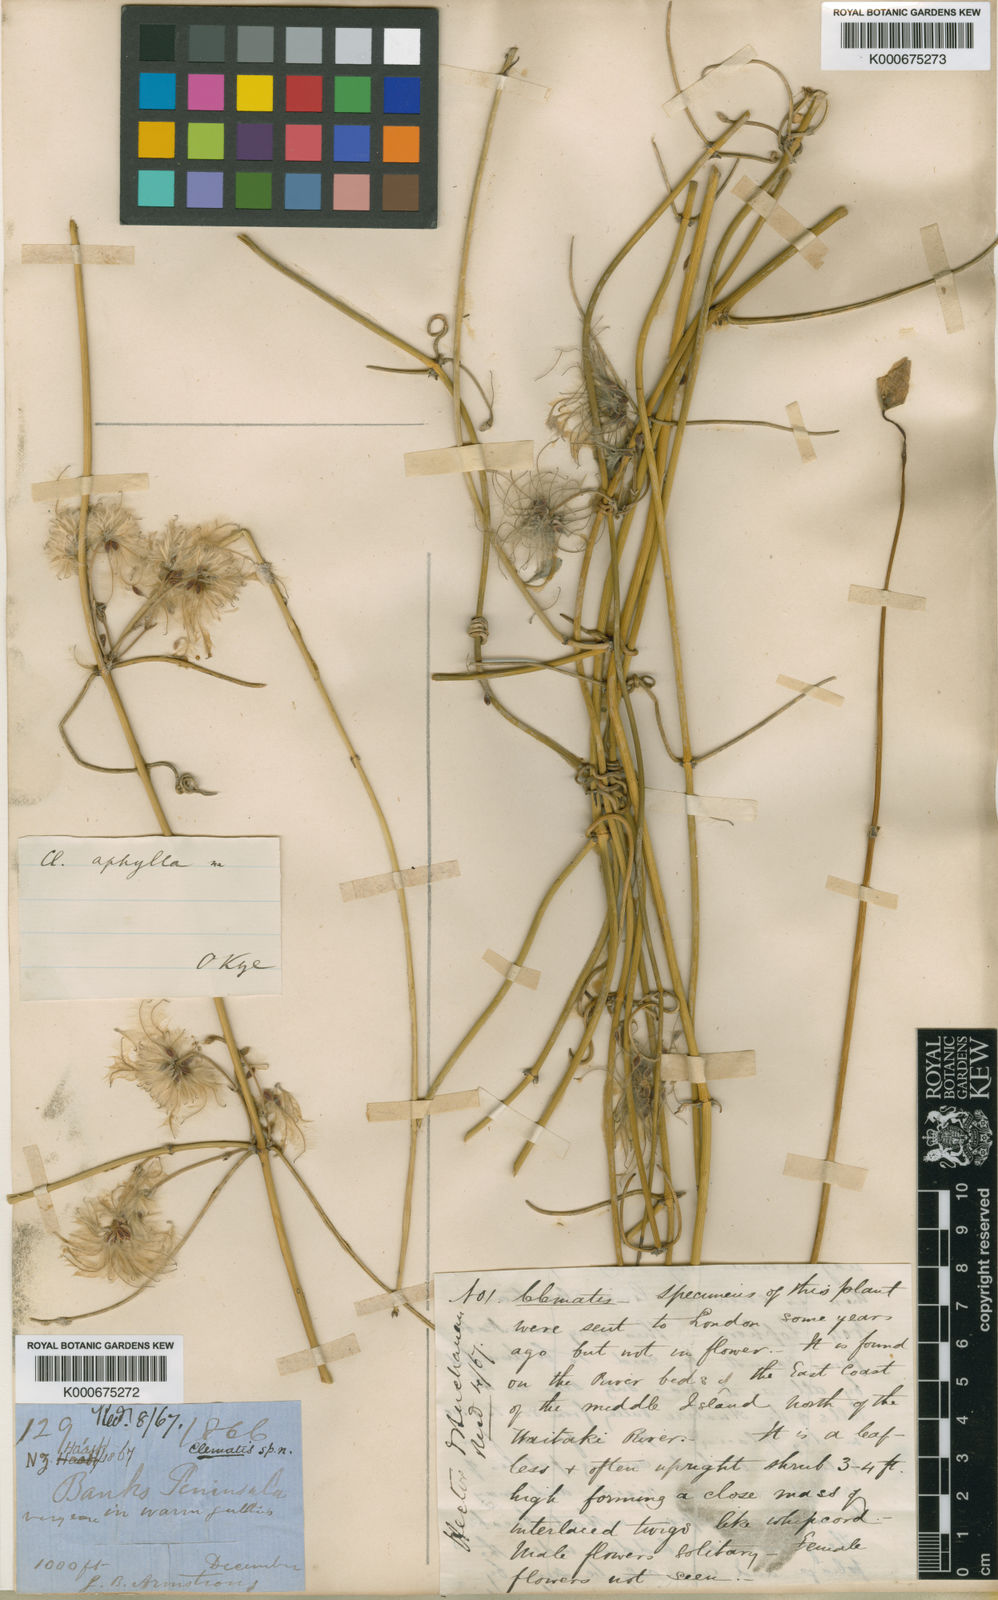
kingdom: Plantae
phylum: Tracheophyta
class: Magnoliopsida
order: Ranunculales
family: Ranunculaceae
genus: Clematis
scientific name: Clematis afoliata
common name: Rush-stem clematis
